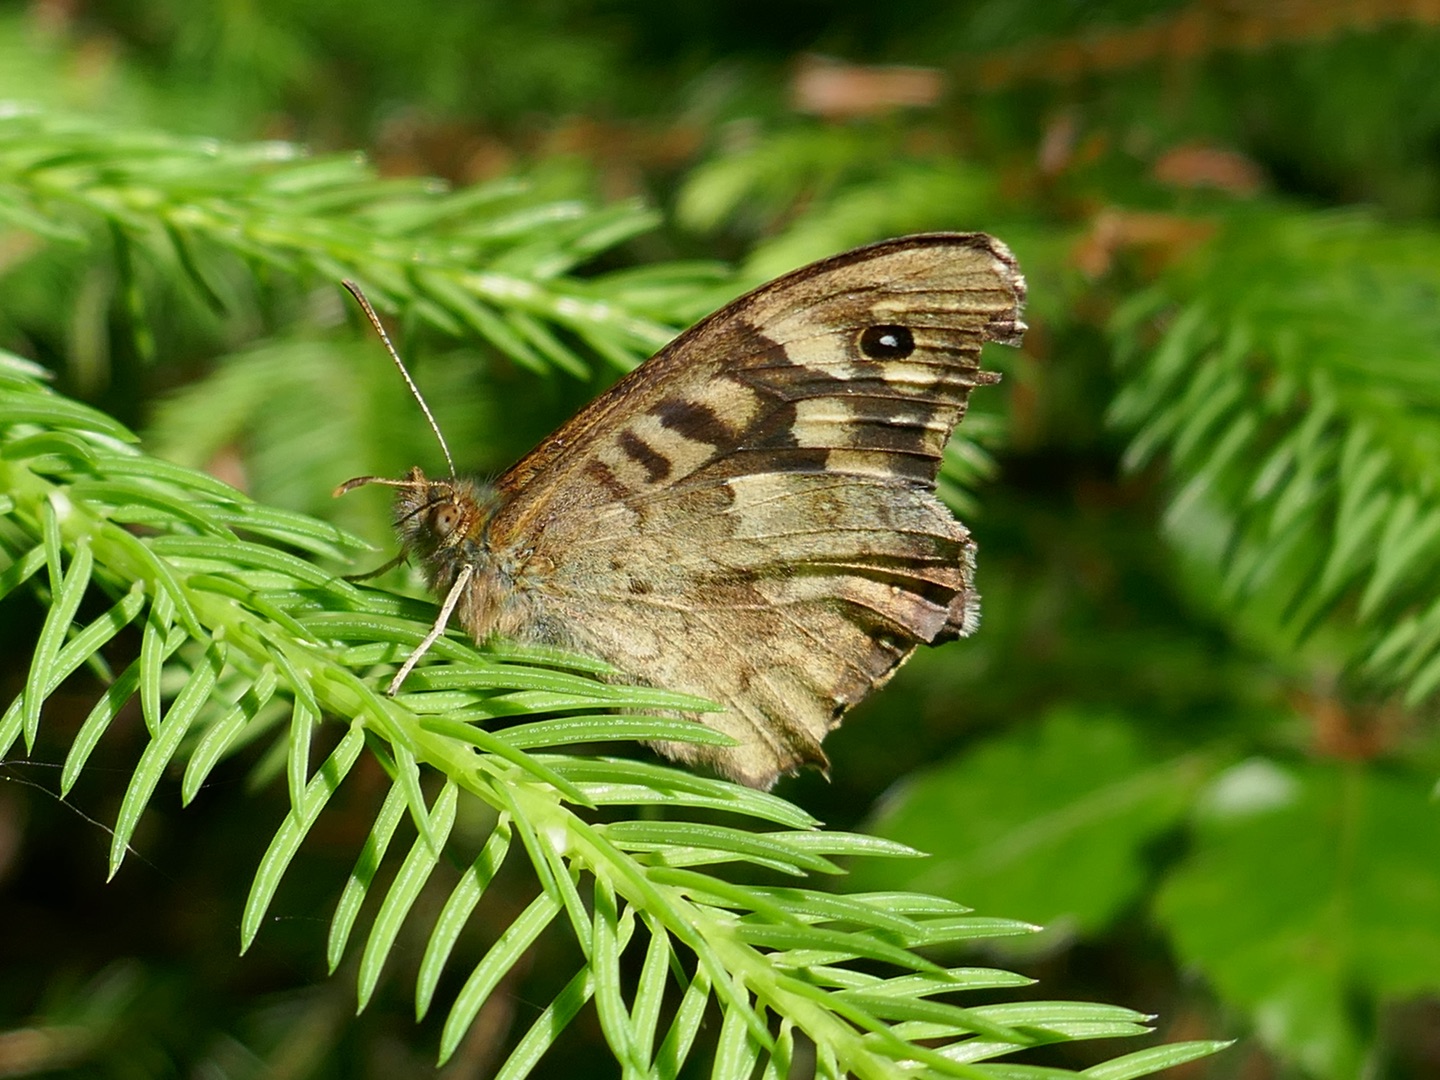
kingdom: Animalia
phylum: Arthropoda
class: Insecta
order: Lepidoptera
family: Nymphalidae
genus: Pararge
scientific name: Pararge aegeria
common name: Skovrandøje
